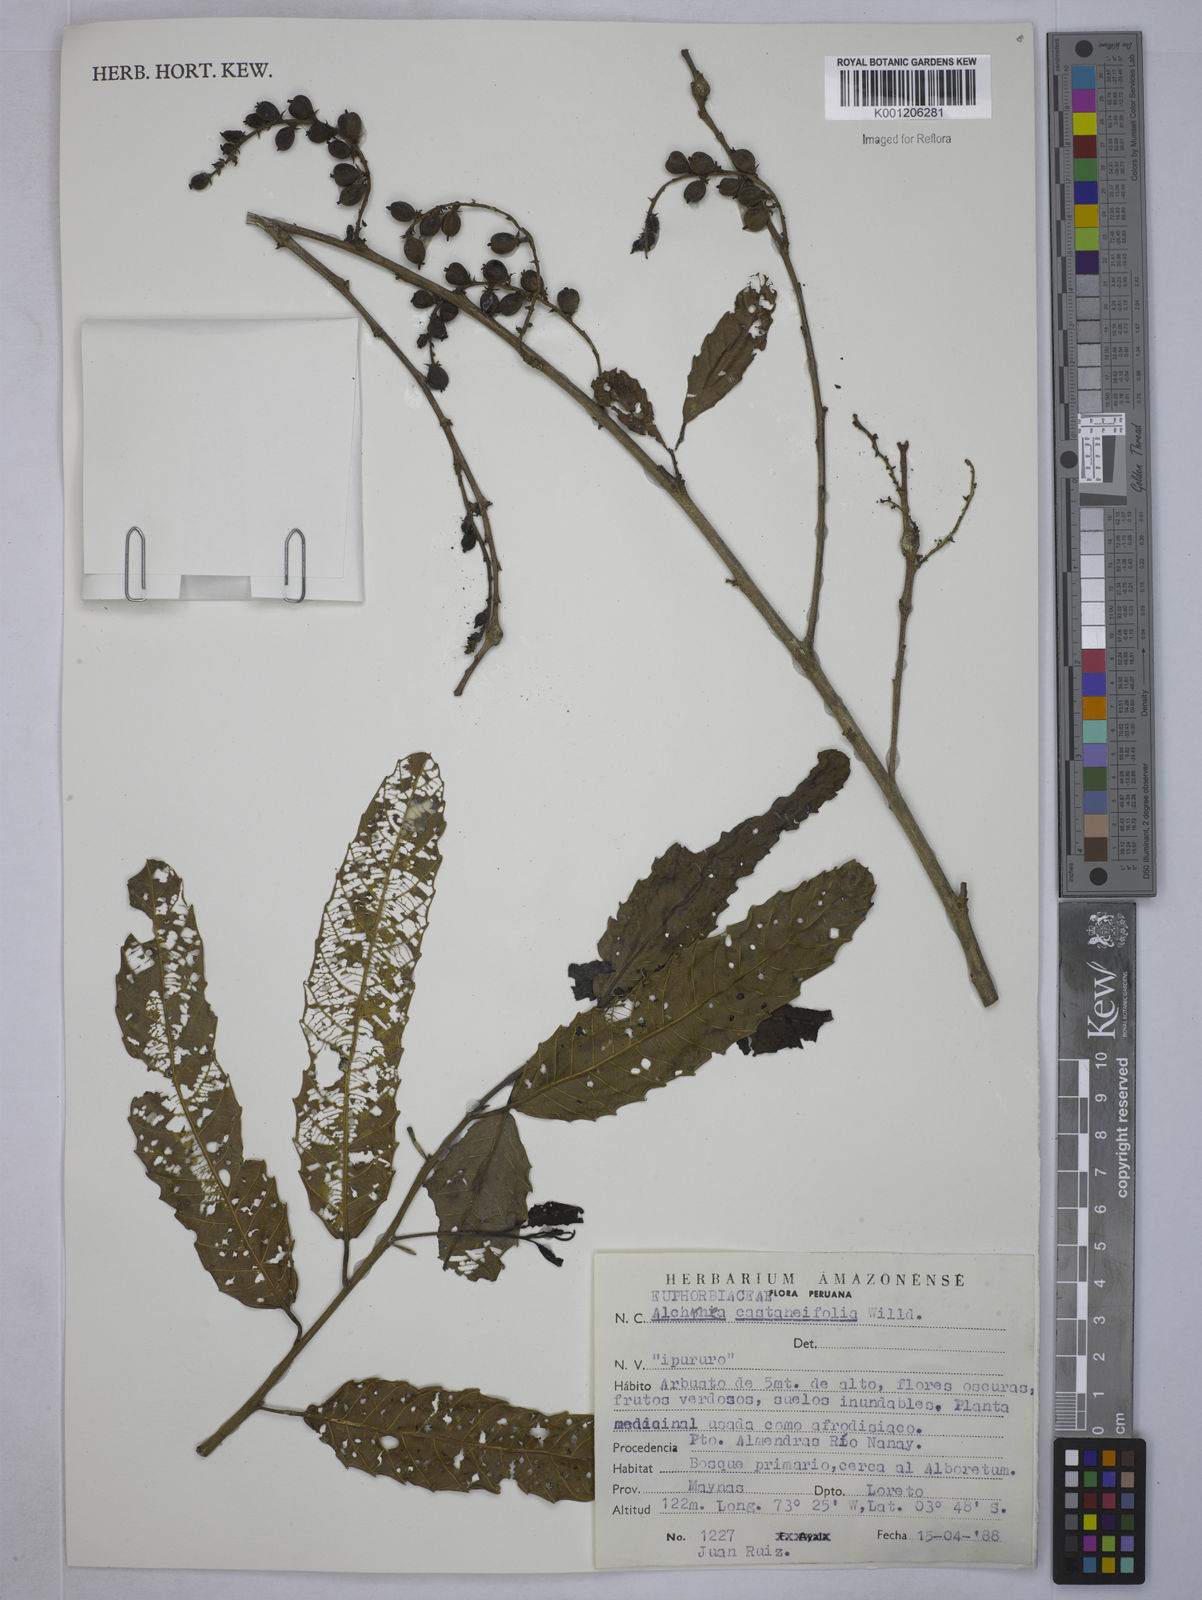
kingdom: Plantae
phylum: Tracheophyta
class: Magnoliopsida
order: Malpighiales
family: Euphorbiaceae
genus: Alchornea
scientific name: Alchornea castaneifolia
